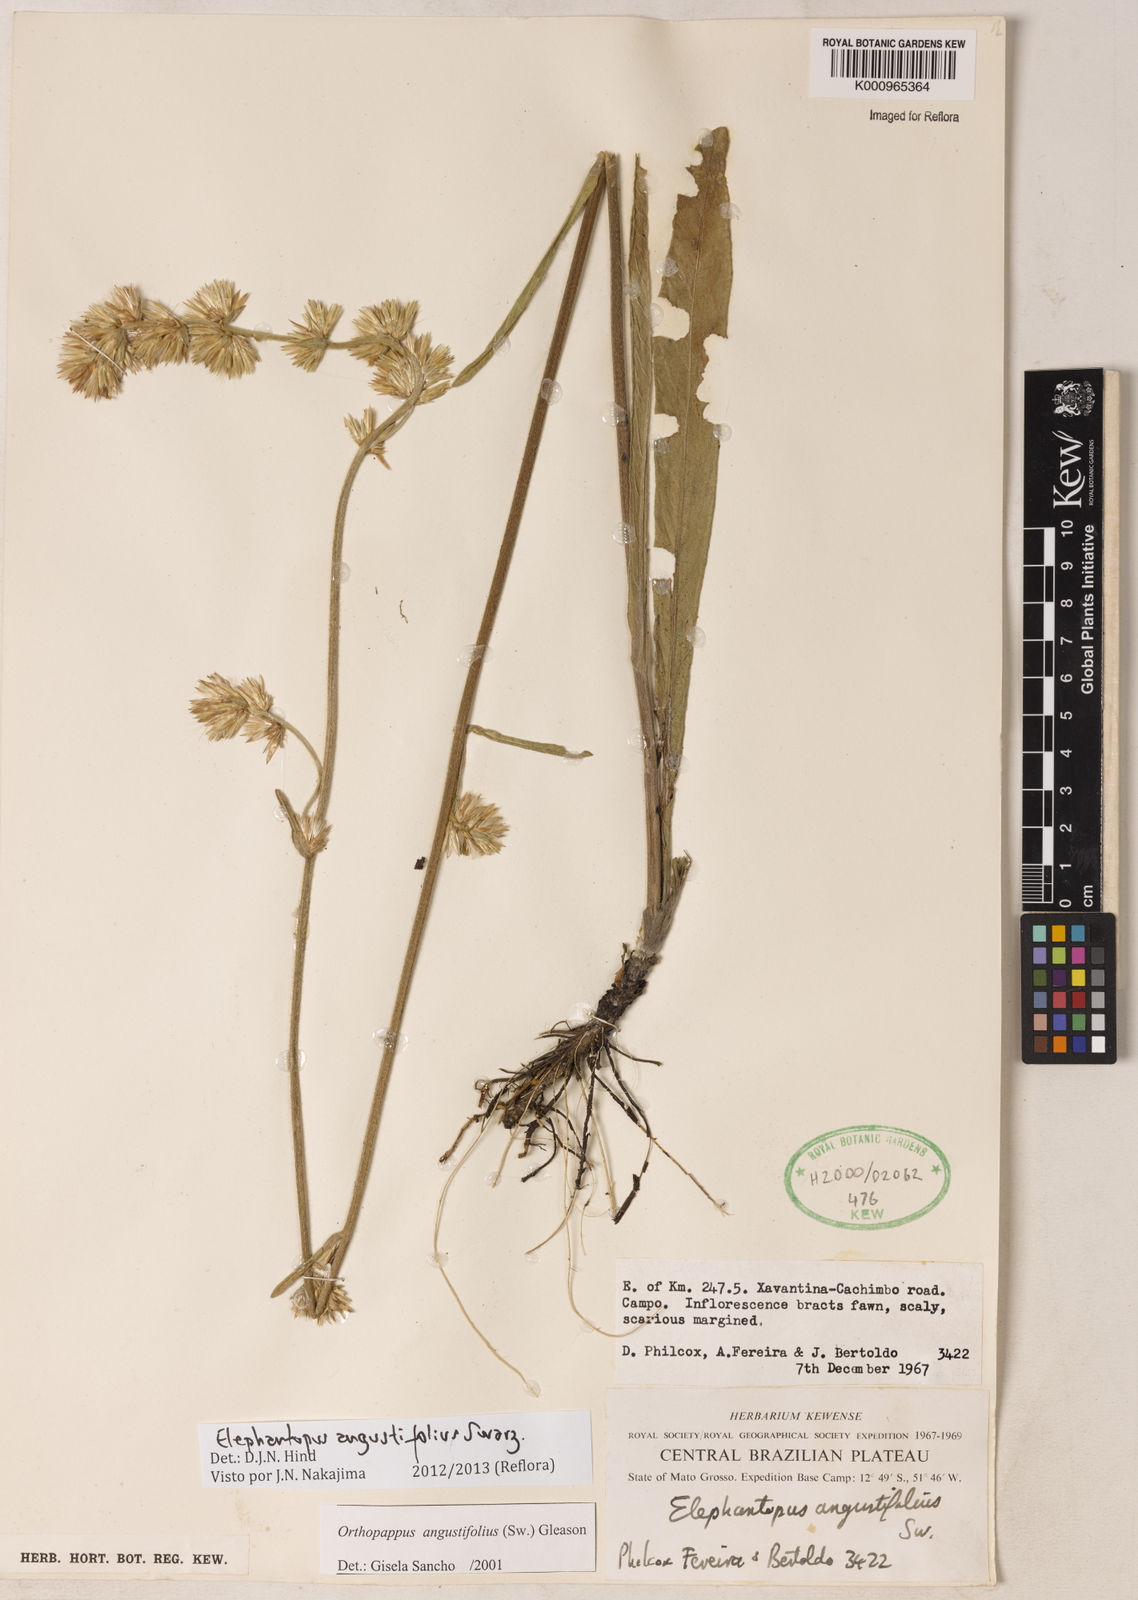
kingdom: Plantae
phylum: Tracheophyta
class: Magnoliopsida
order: Asterales
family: Asteraceae
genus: Orthopappus
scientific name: Orthopappus angustifolius
